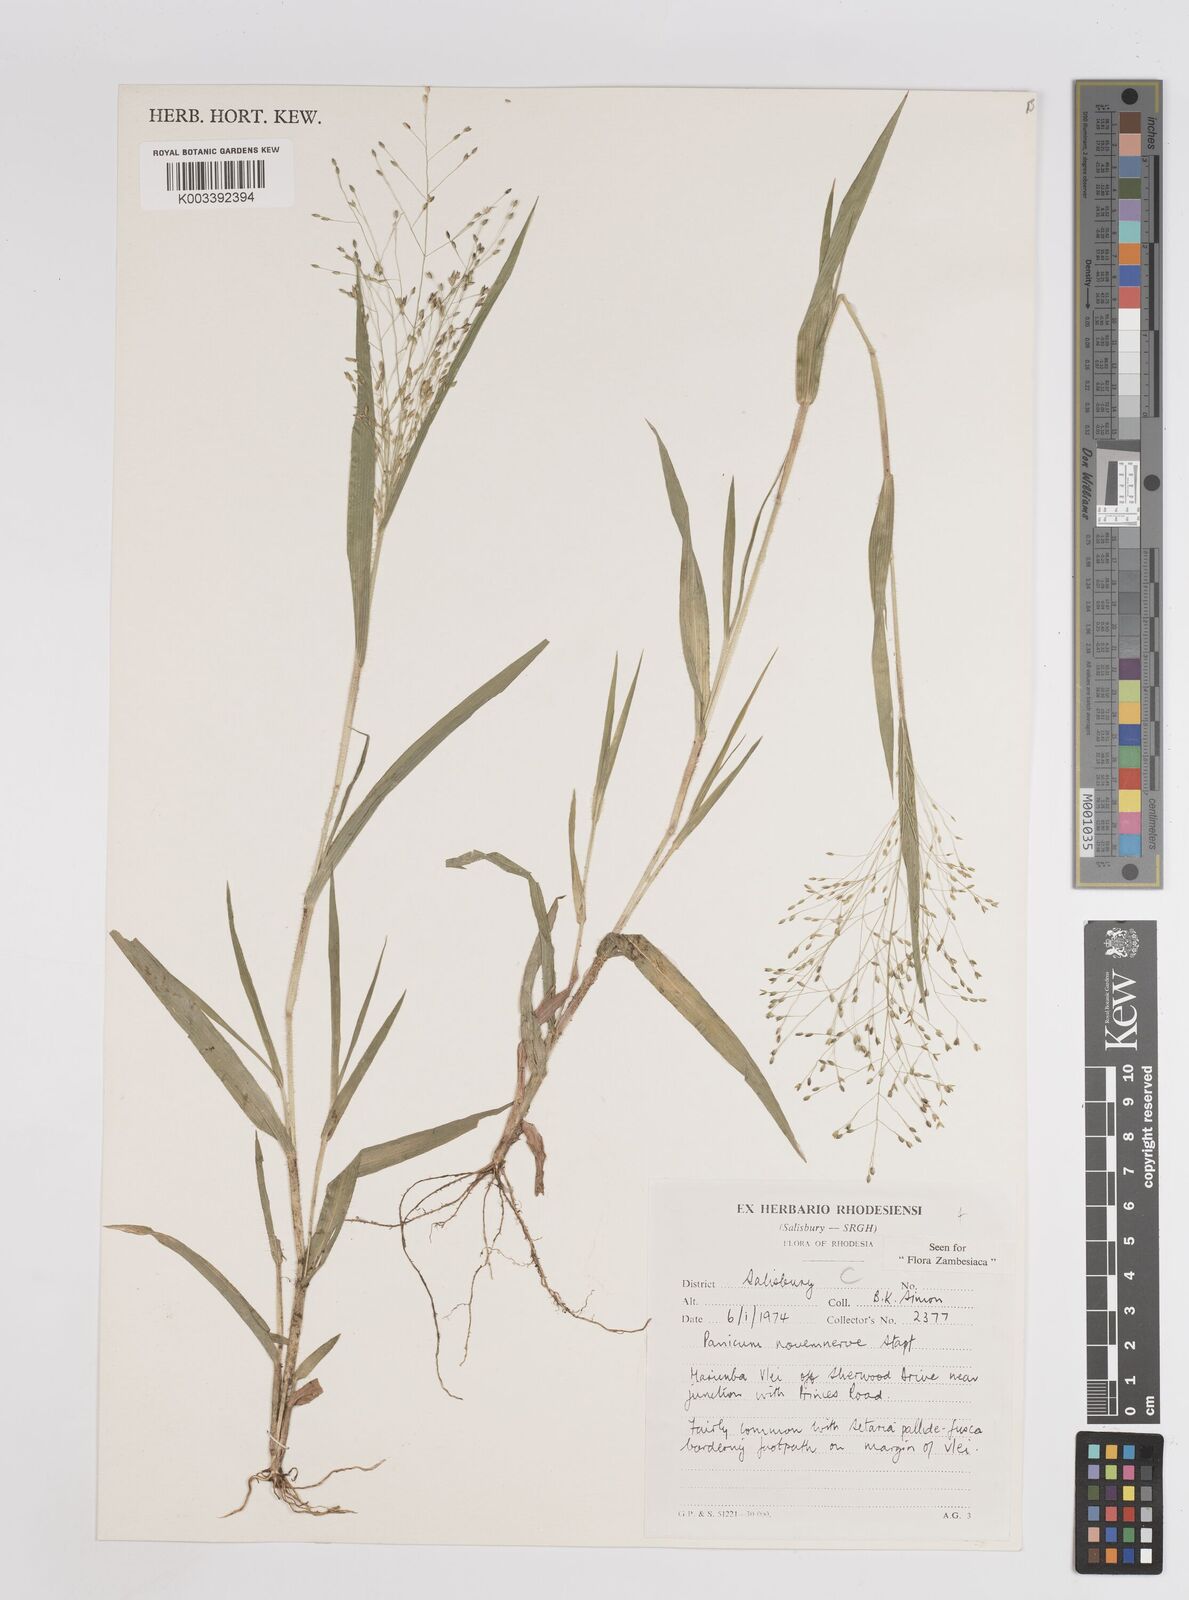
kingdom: Plantae
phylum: Tracheophyta
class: Liliopsida
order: Poales
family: Poaceae
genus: Panicum
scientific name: Panicum novemnerve
